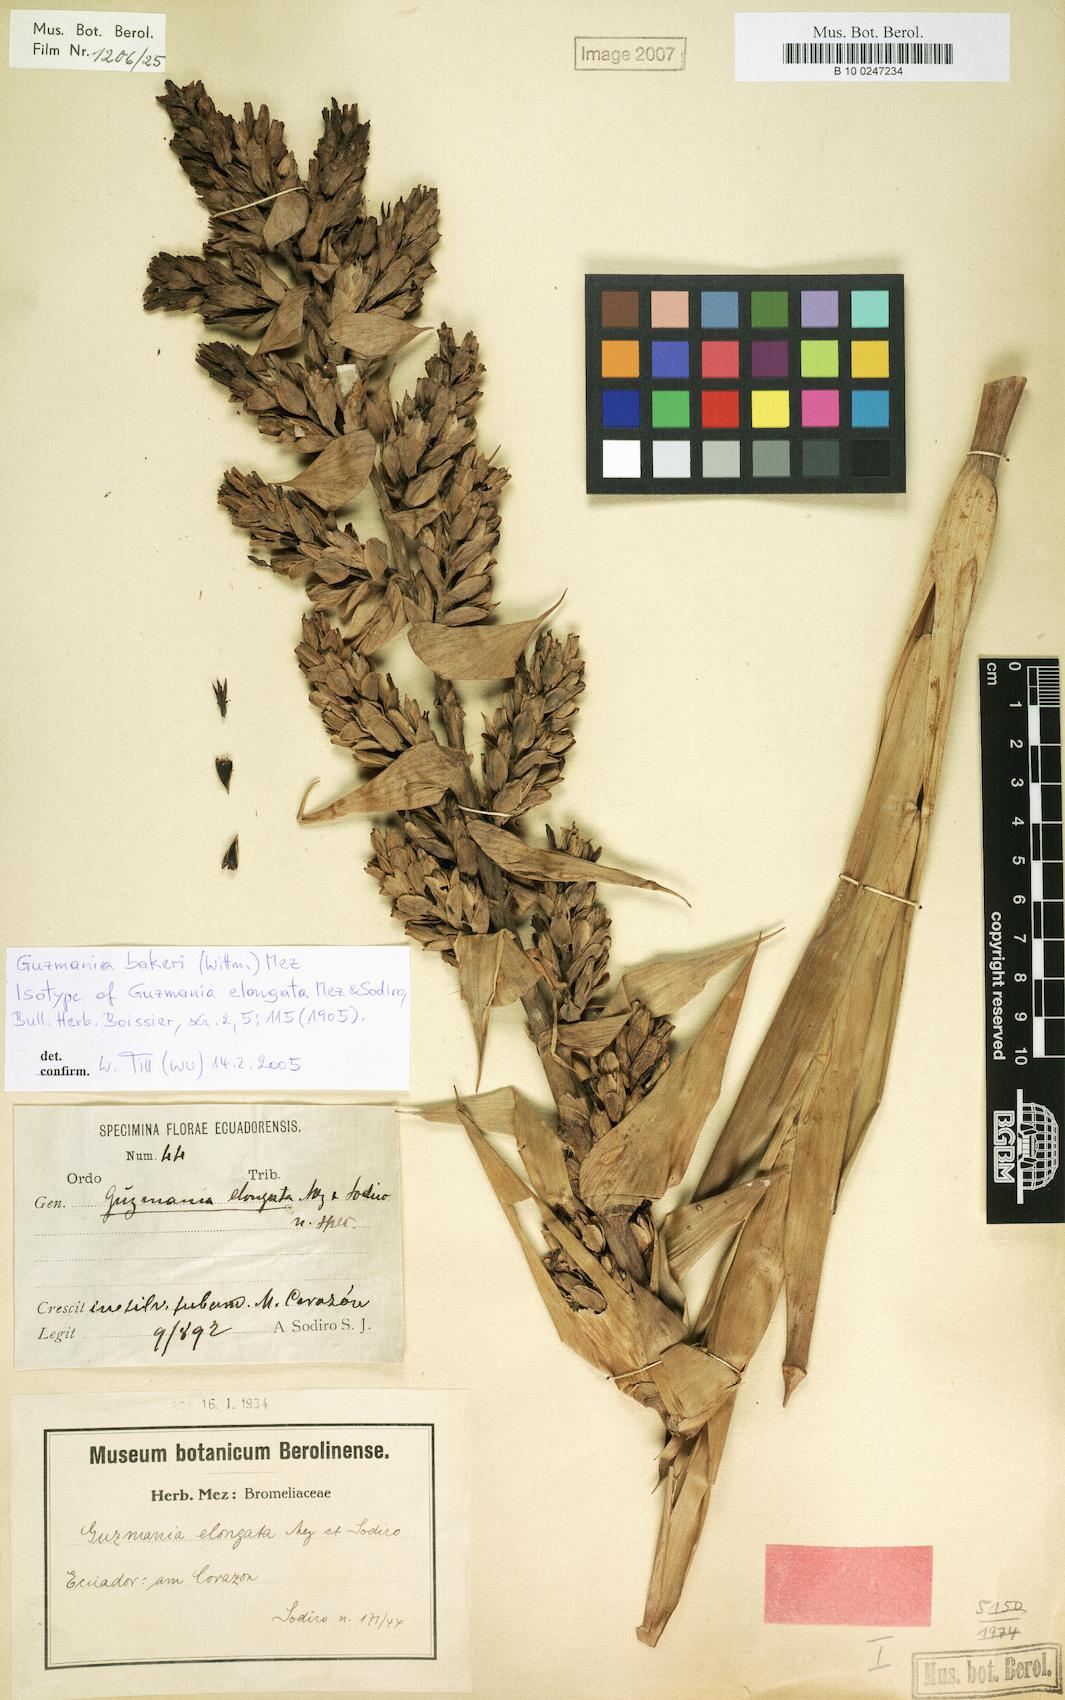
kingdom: Plantae
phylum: Tracheophyta
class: Liliopsida
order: Poales
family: Bromeliaceae
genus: Guzmania
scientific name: Guzmania bakeri
